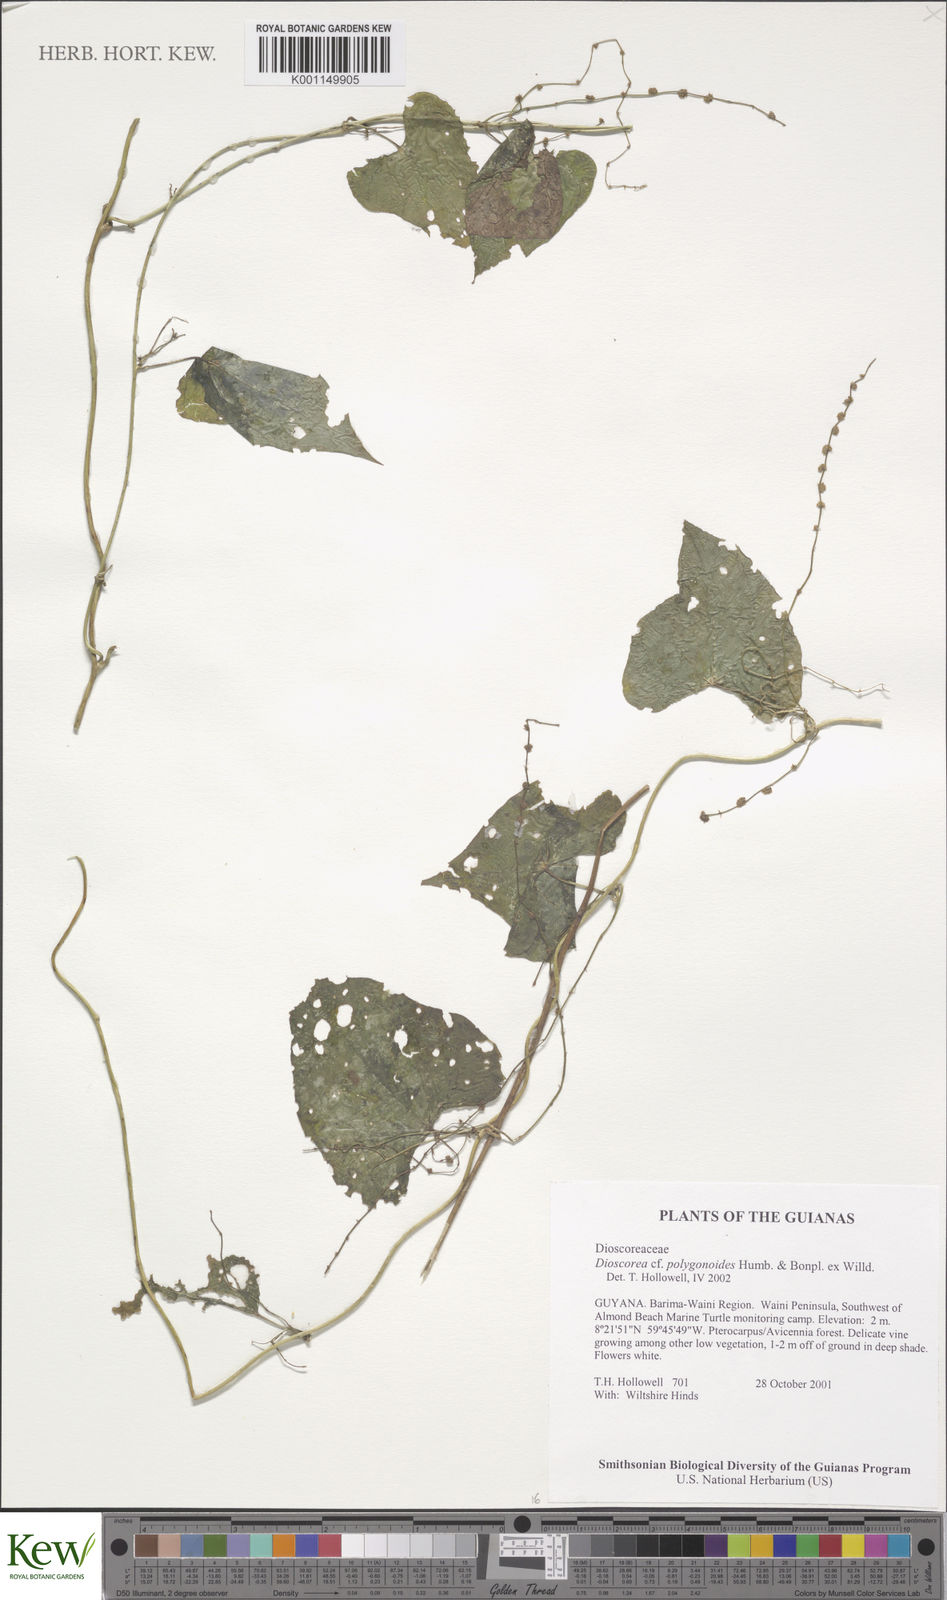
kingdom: Plantae
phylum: Tracheophyta
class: Liliopsida
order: Dioscoreales
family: Dioscoreaceae
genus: Dioscorea
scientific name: Dioscorea polygonoides
